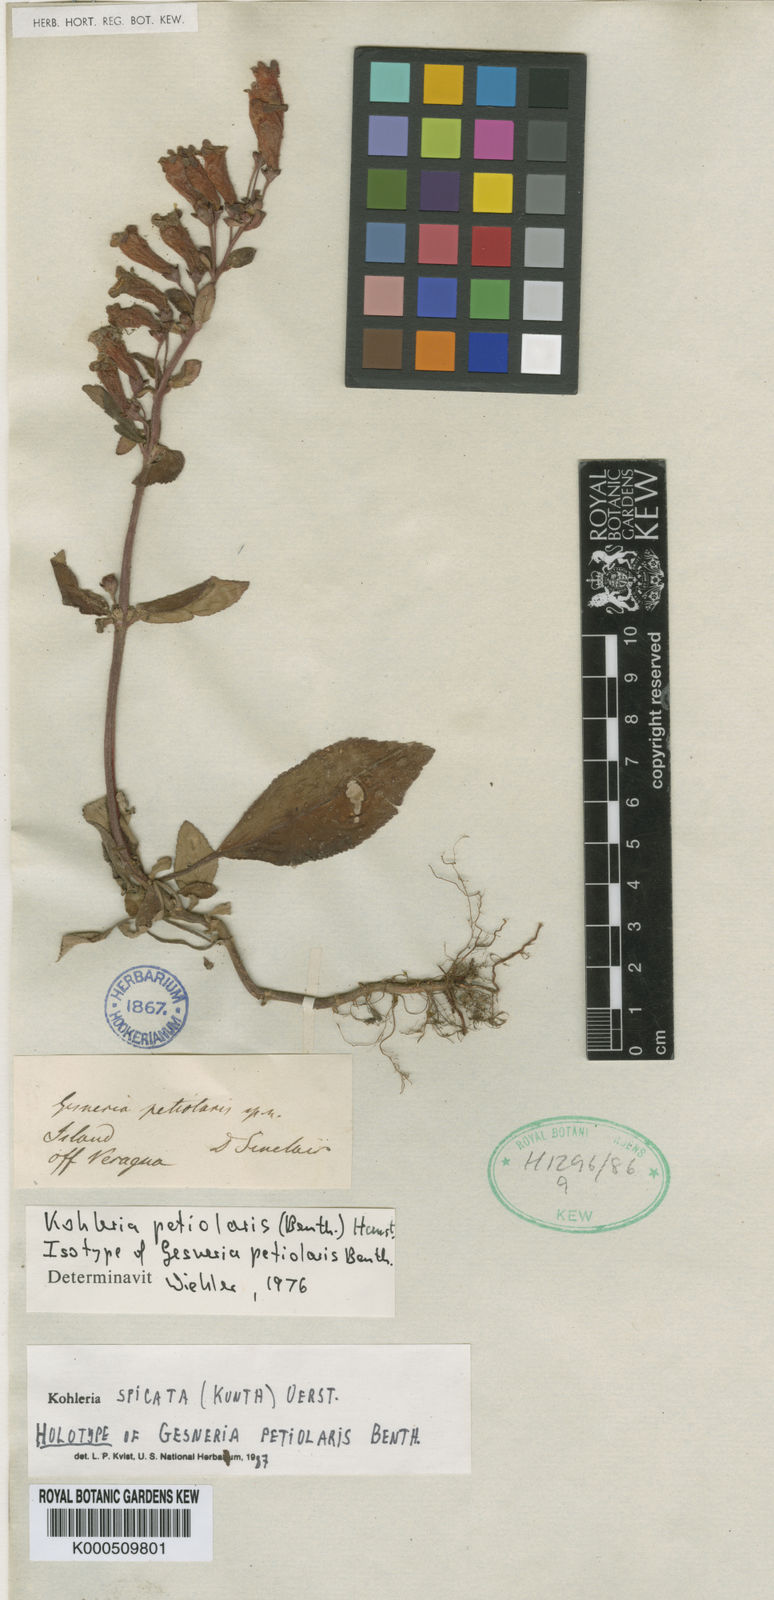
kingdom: Plantae
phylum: Tracheophyta
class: Magnoliopsida
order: Lamiales
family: Gesneriaceae
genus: Kohleria
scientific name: Kohleria spicata
